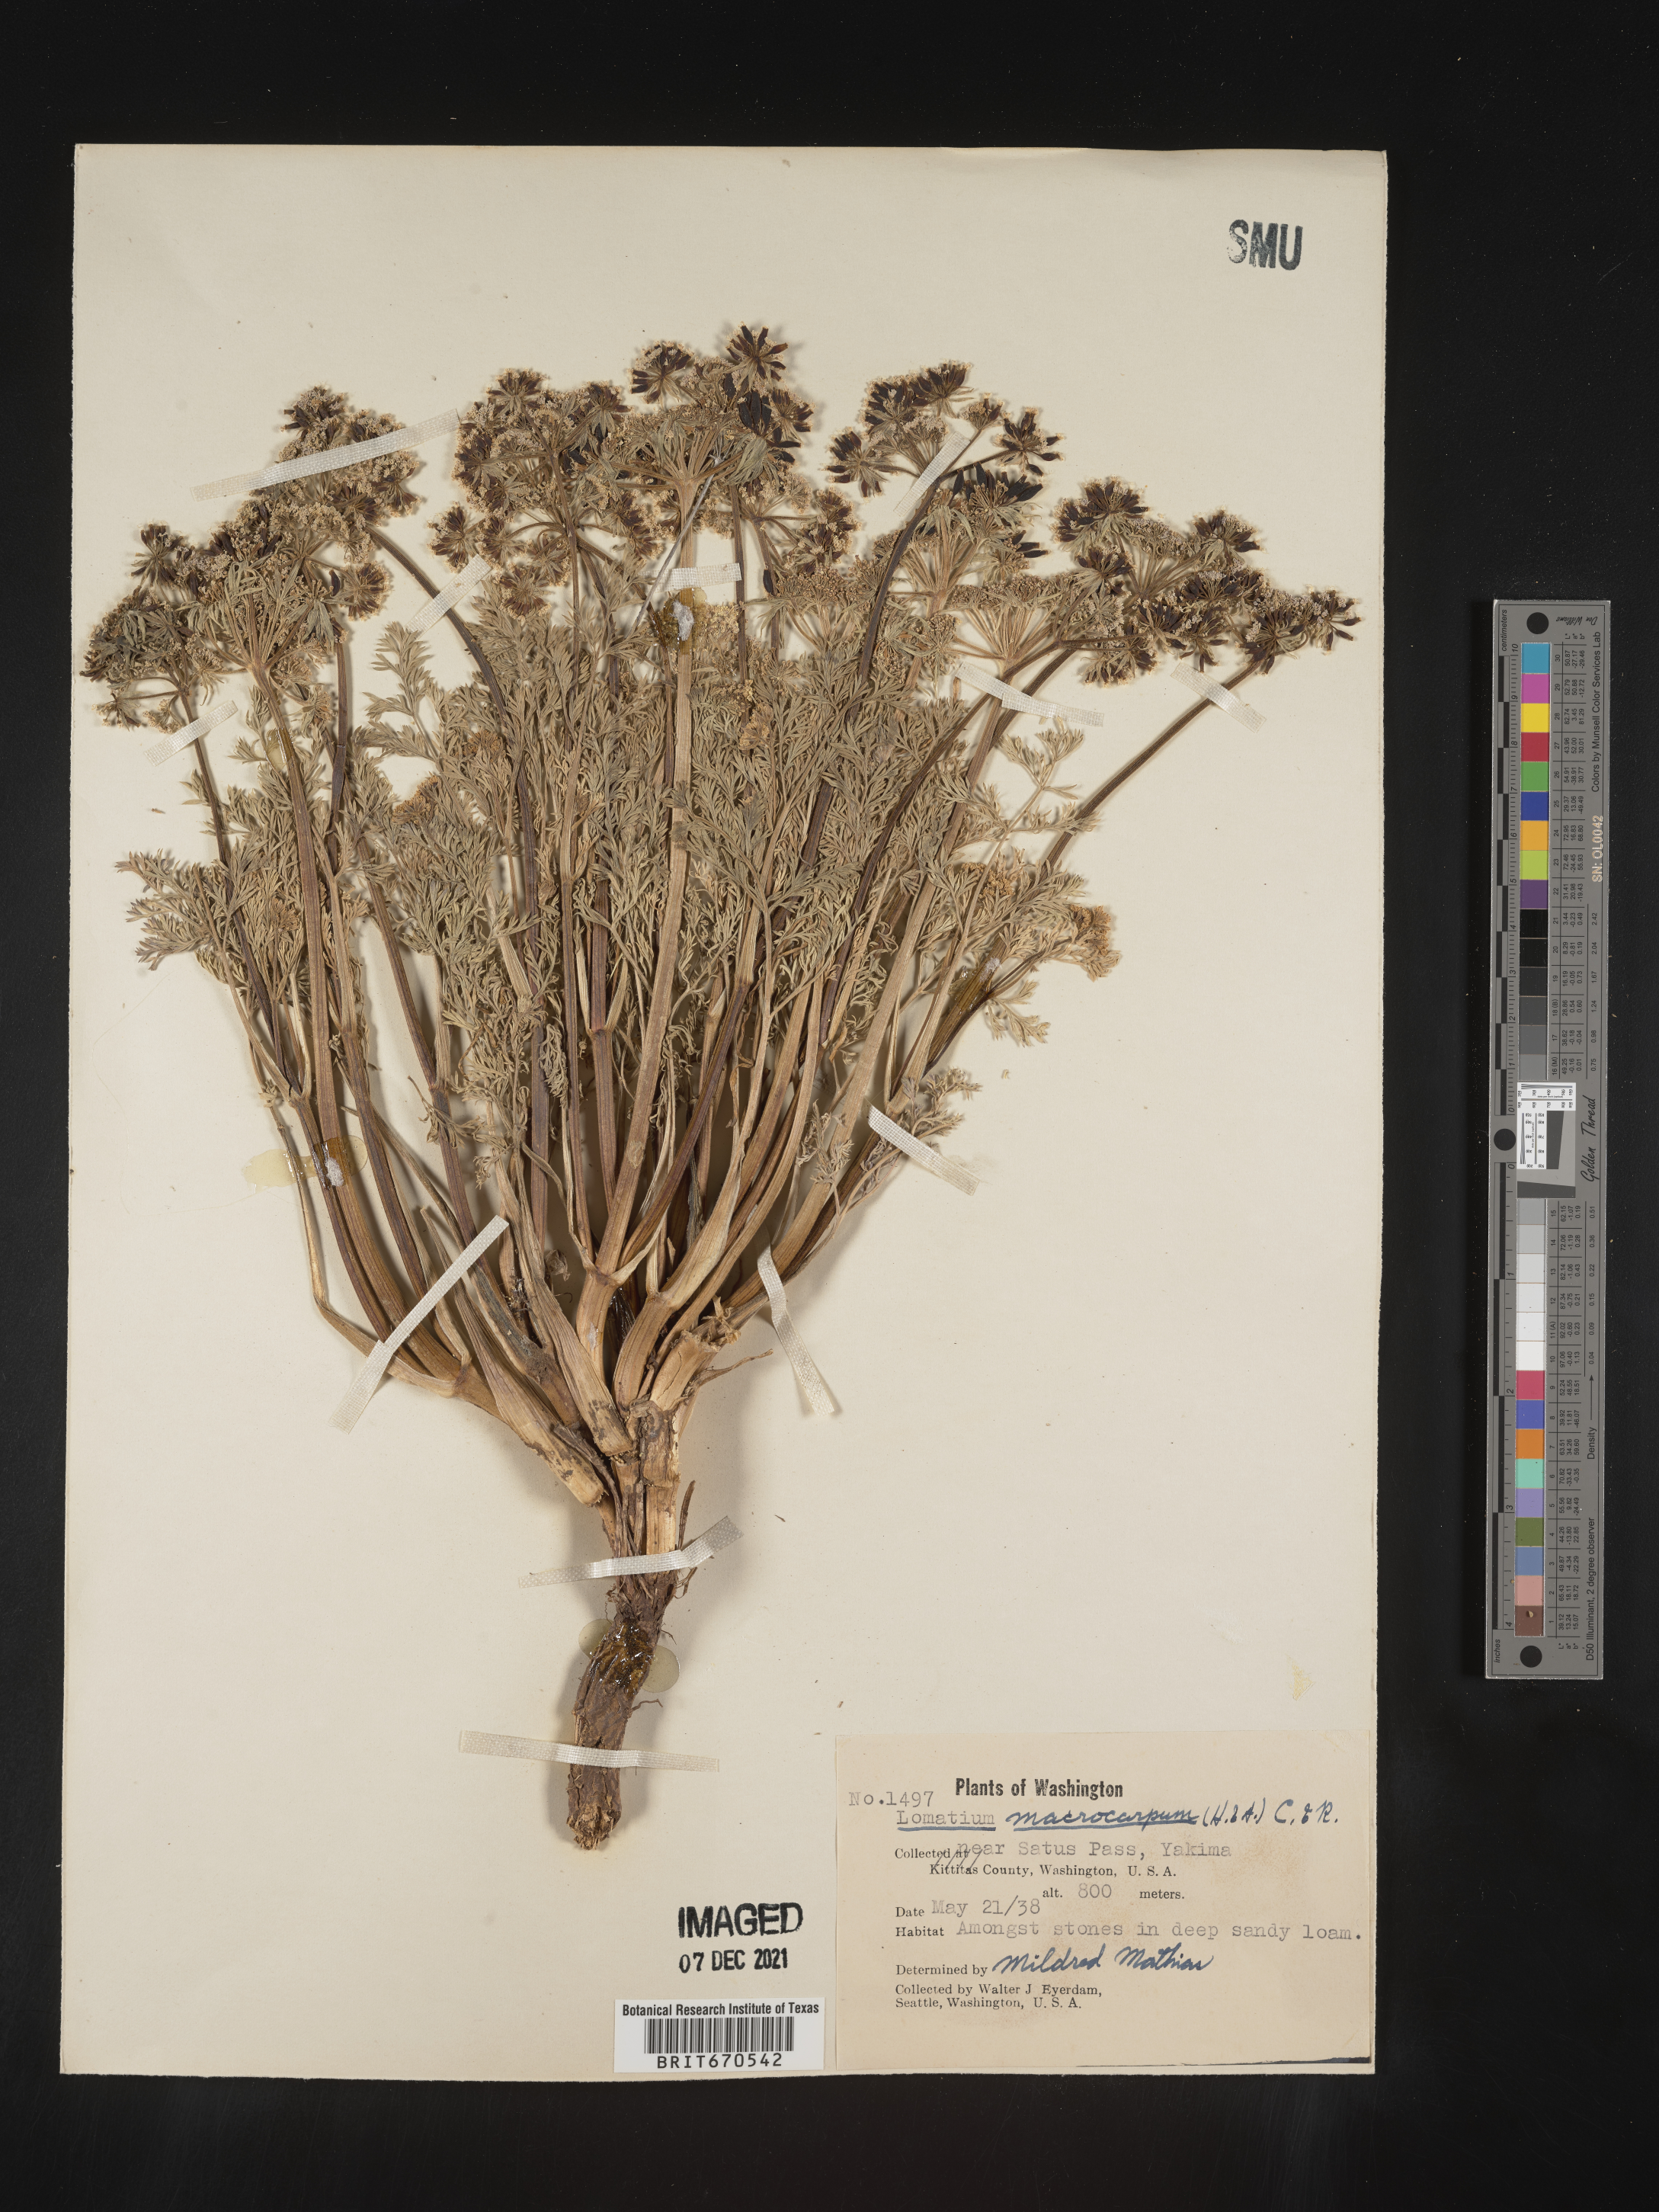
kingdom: Plantae
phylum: Tracheophyta
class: Magnoliopsida
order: Apiales
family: Apiaceae
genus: Lomatium
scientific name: Lomatium macrocarpum
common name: Big-seed biscuitroot
